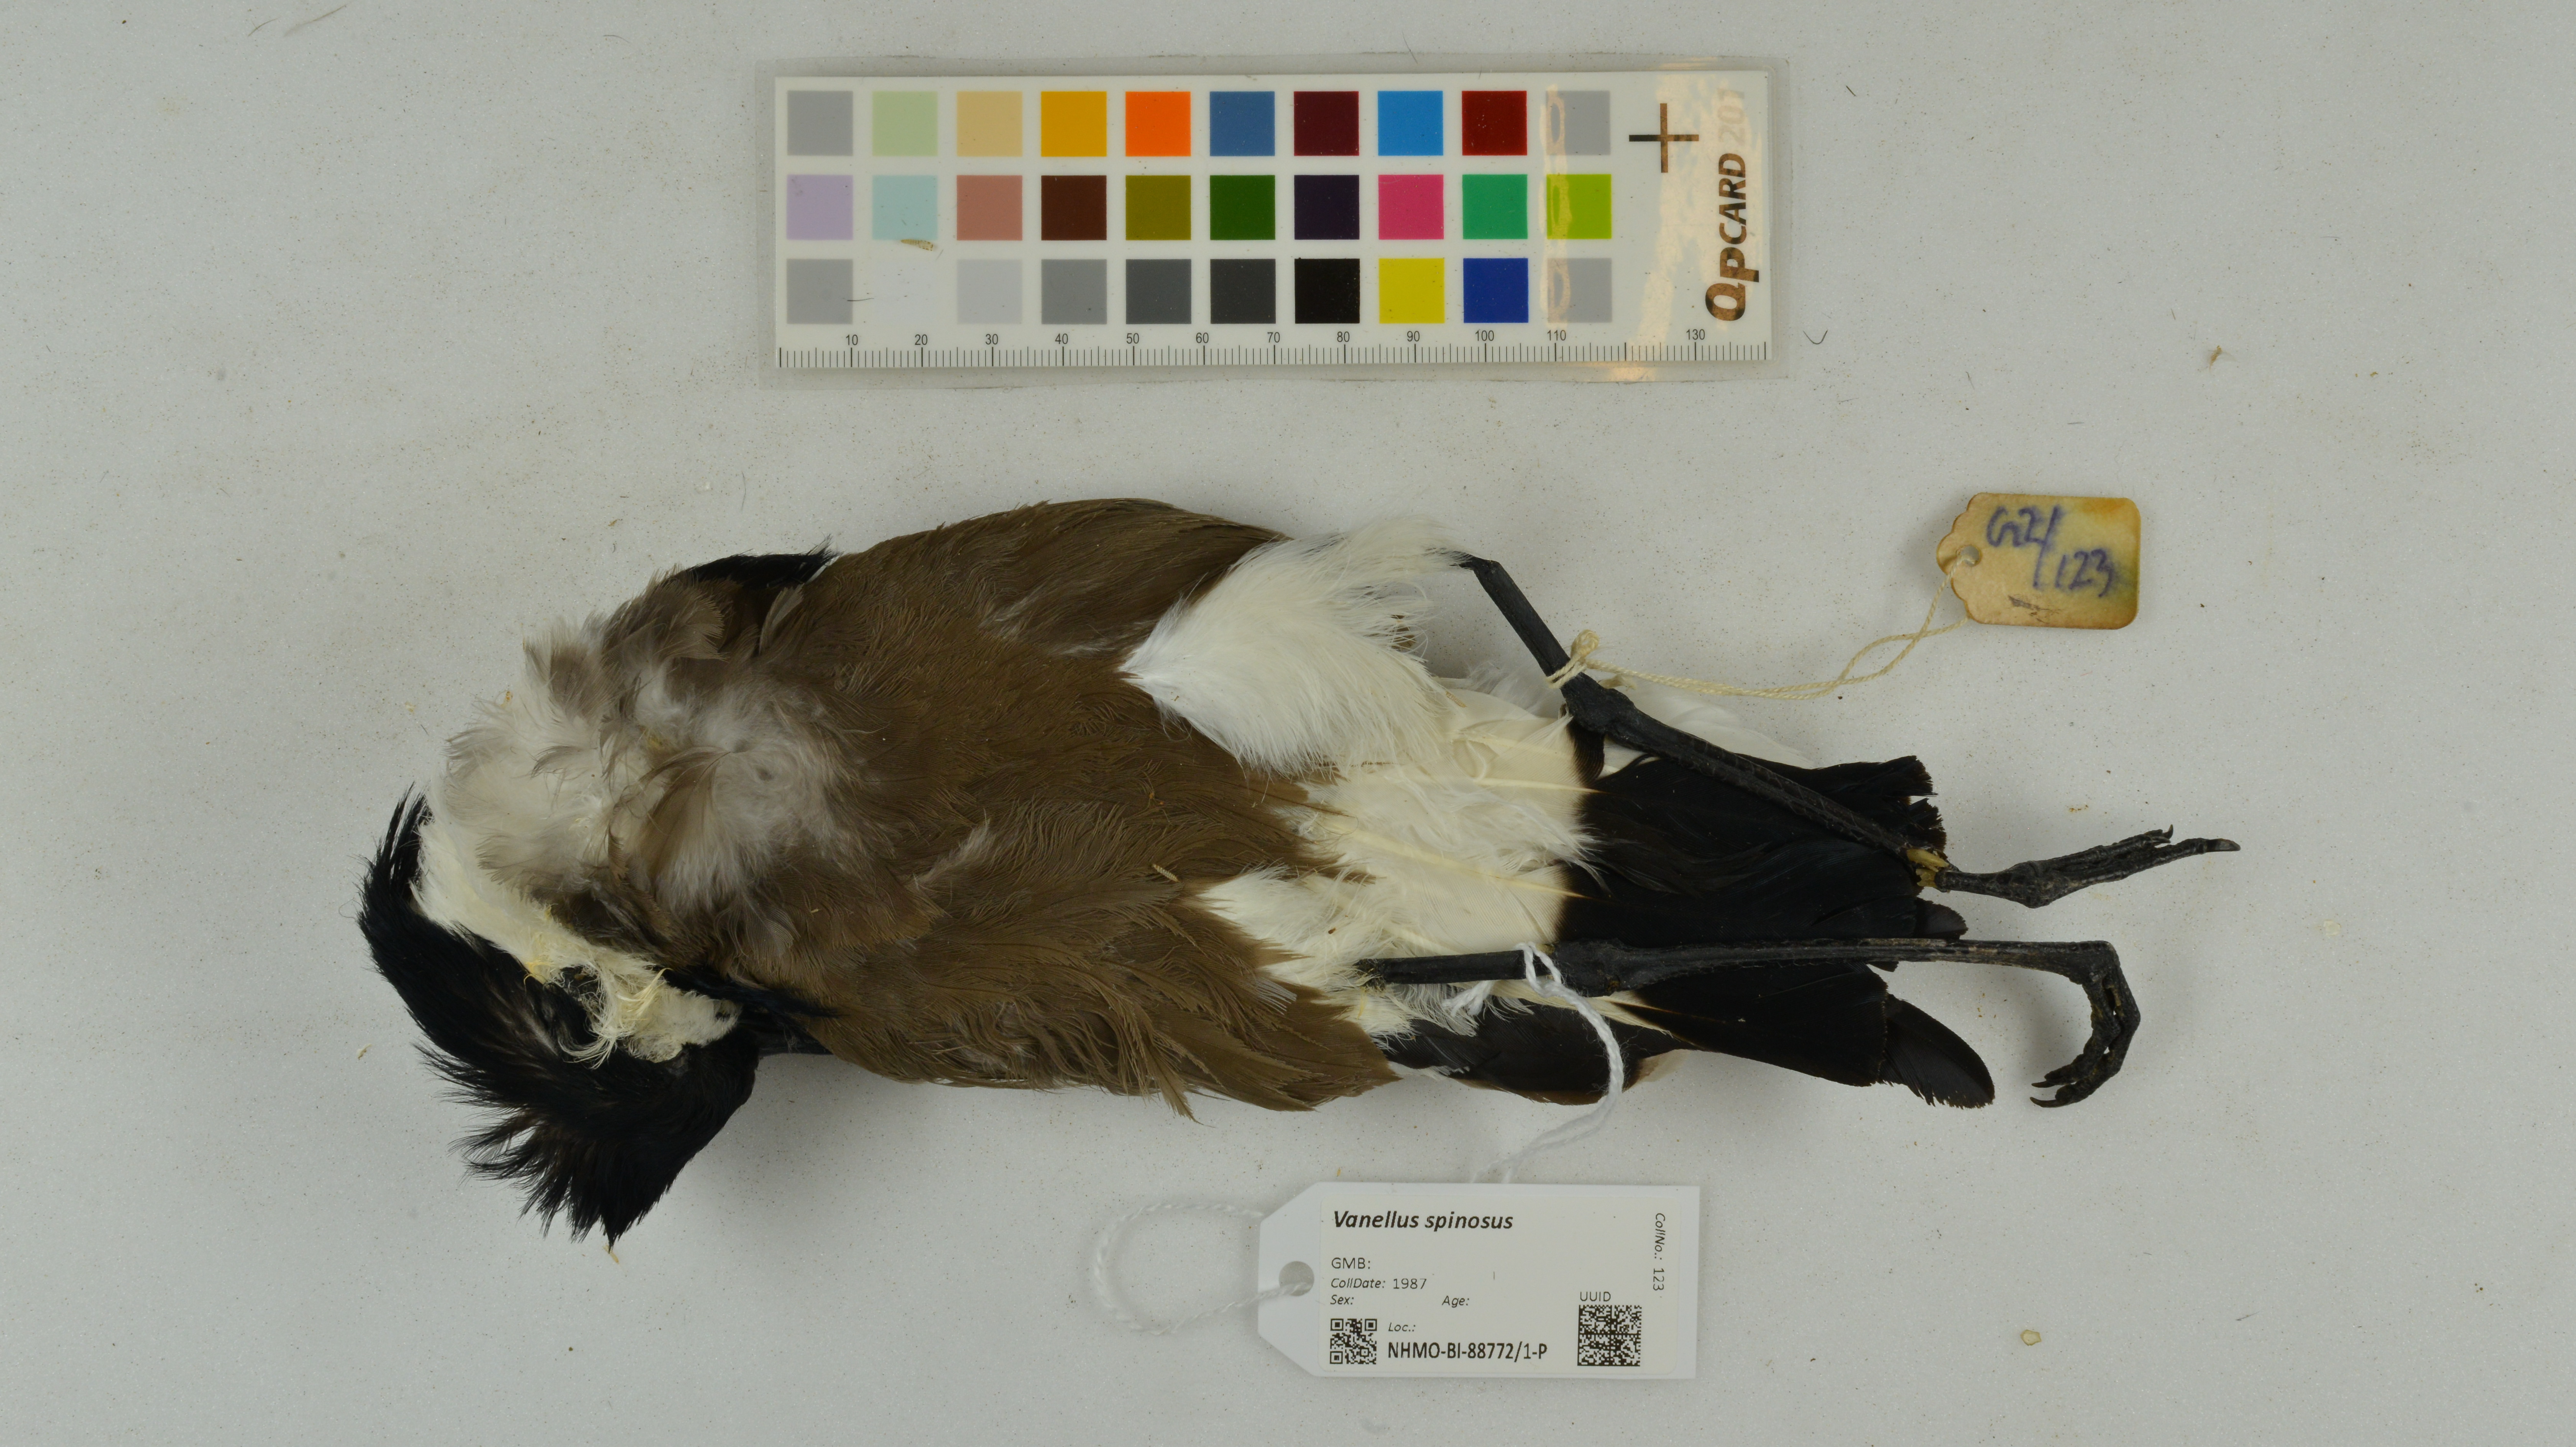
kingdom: Animalia
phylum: Chordata
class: Aves
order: Charadriiformes
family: Charadriidae
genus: Vanellus
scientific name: Vanellus spinosus
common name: Spur-winged lapwing
